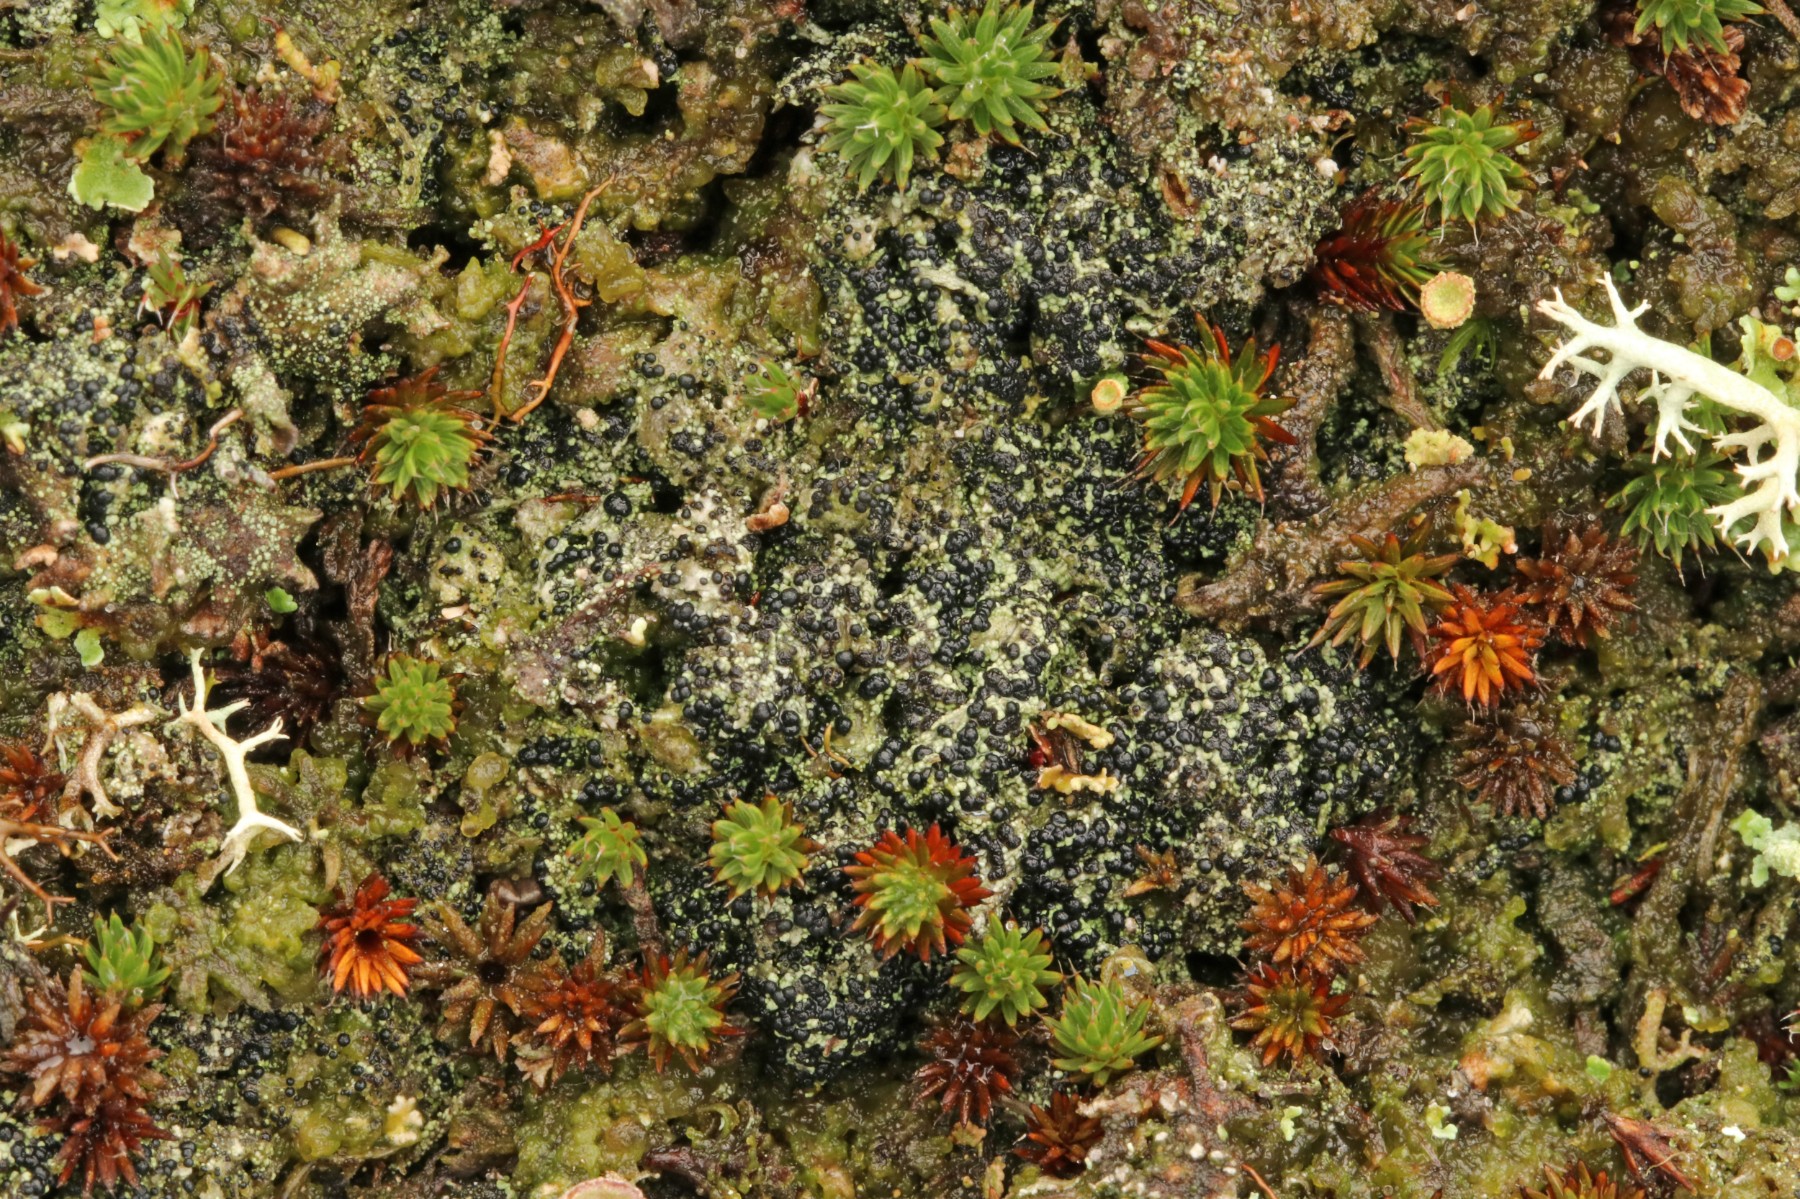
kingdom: Fungi
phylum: Ascomycota
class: Lecanoromycetes
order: Lecanorales
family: Byssolomataceae
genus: Micarea
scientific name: Micarea lignaria
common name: tørve-knaplav
